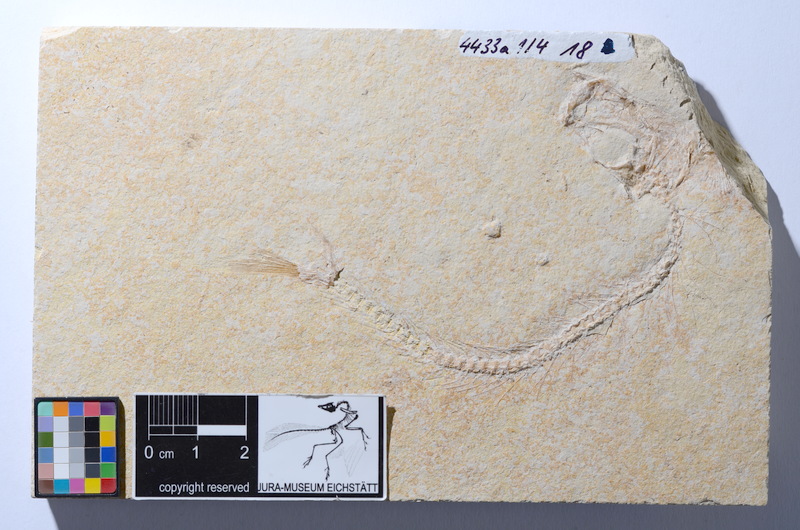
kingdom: Animalia
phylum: Chordata
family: Ascalaboidae
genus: Tharsis
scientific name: Tharsis dubius
